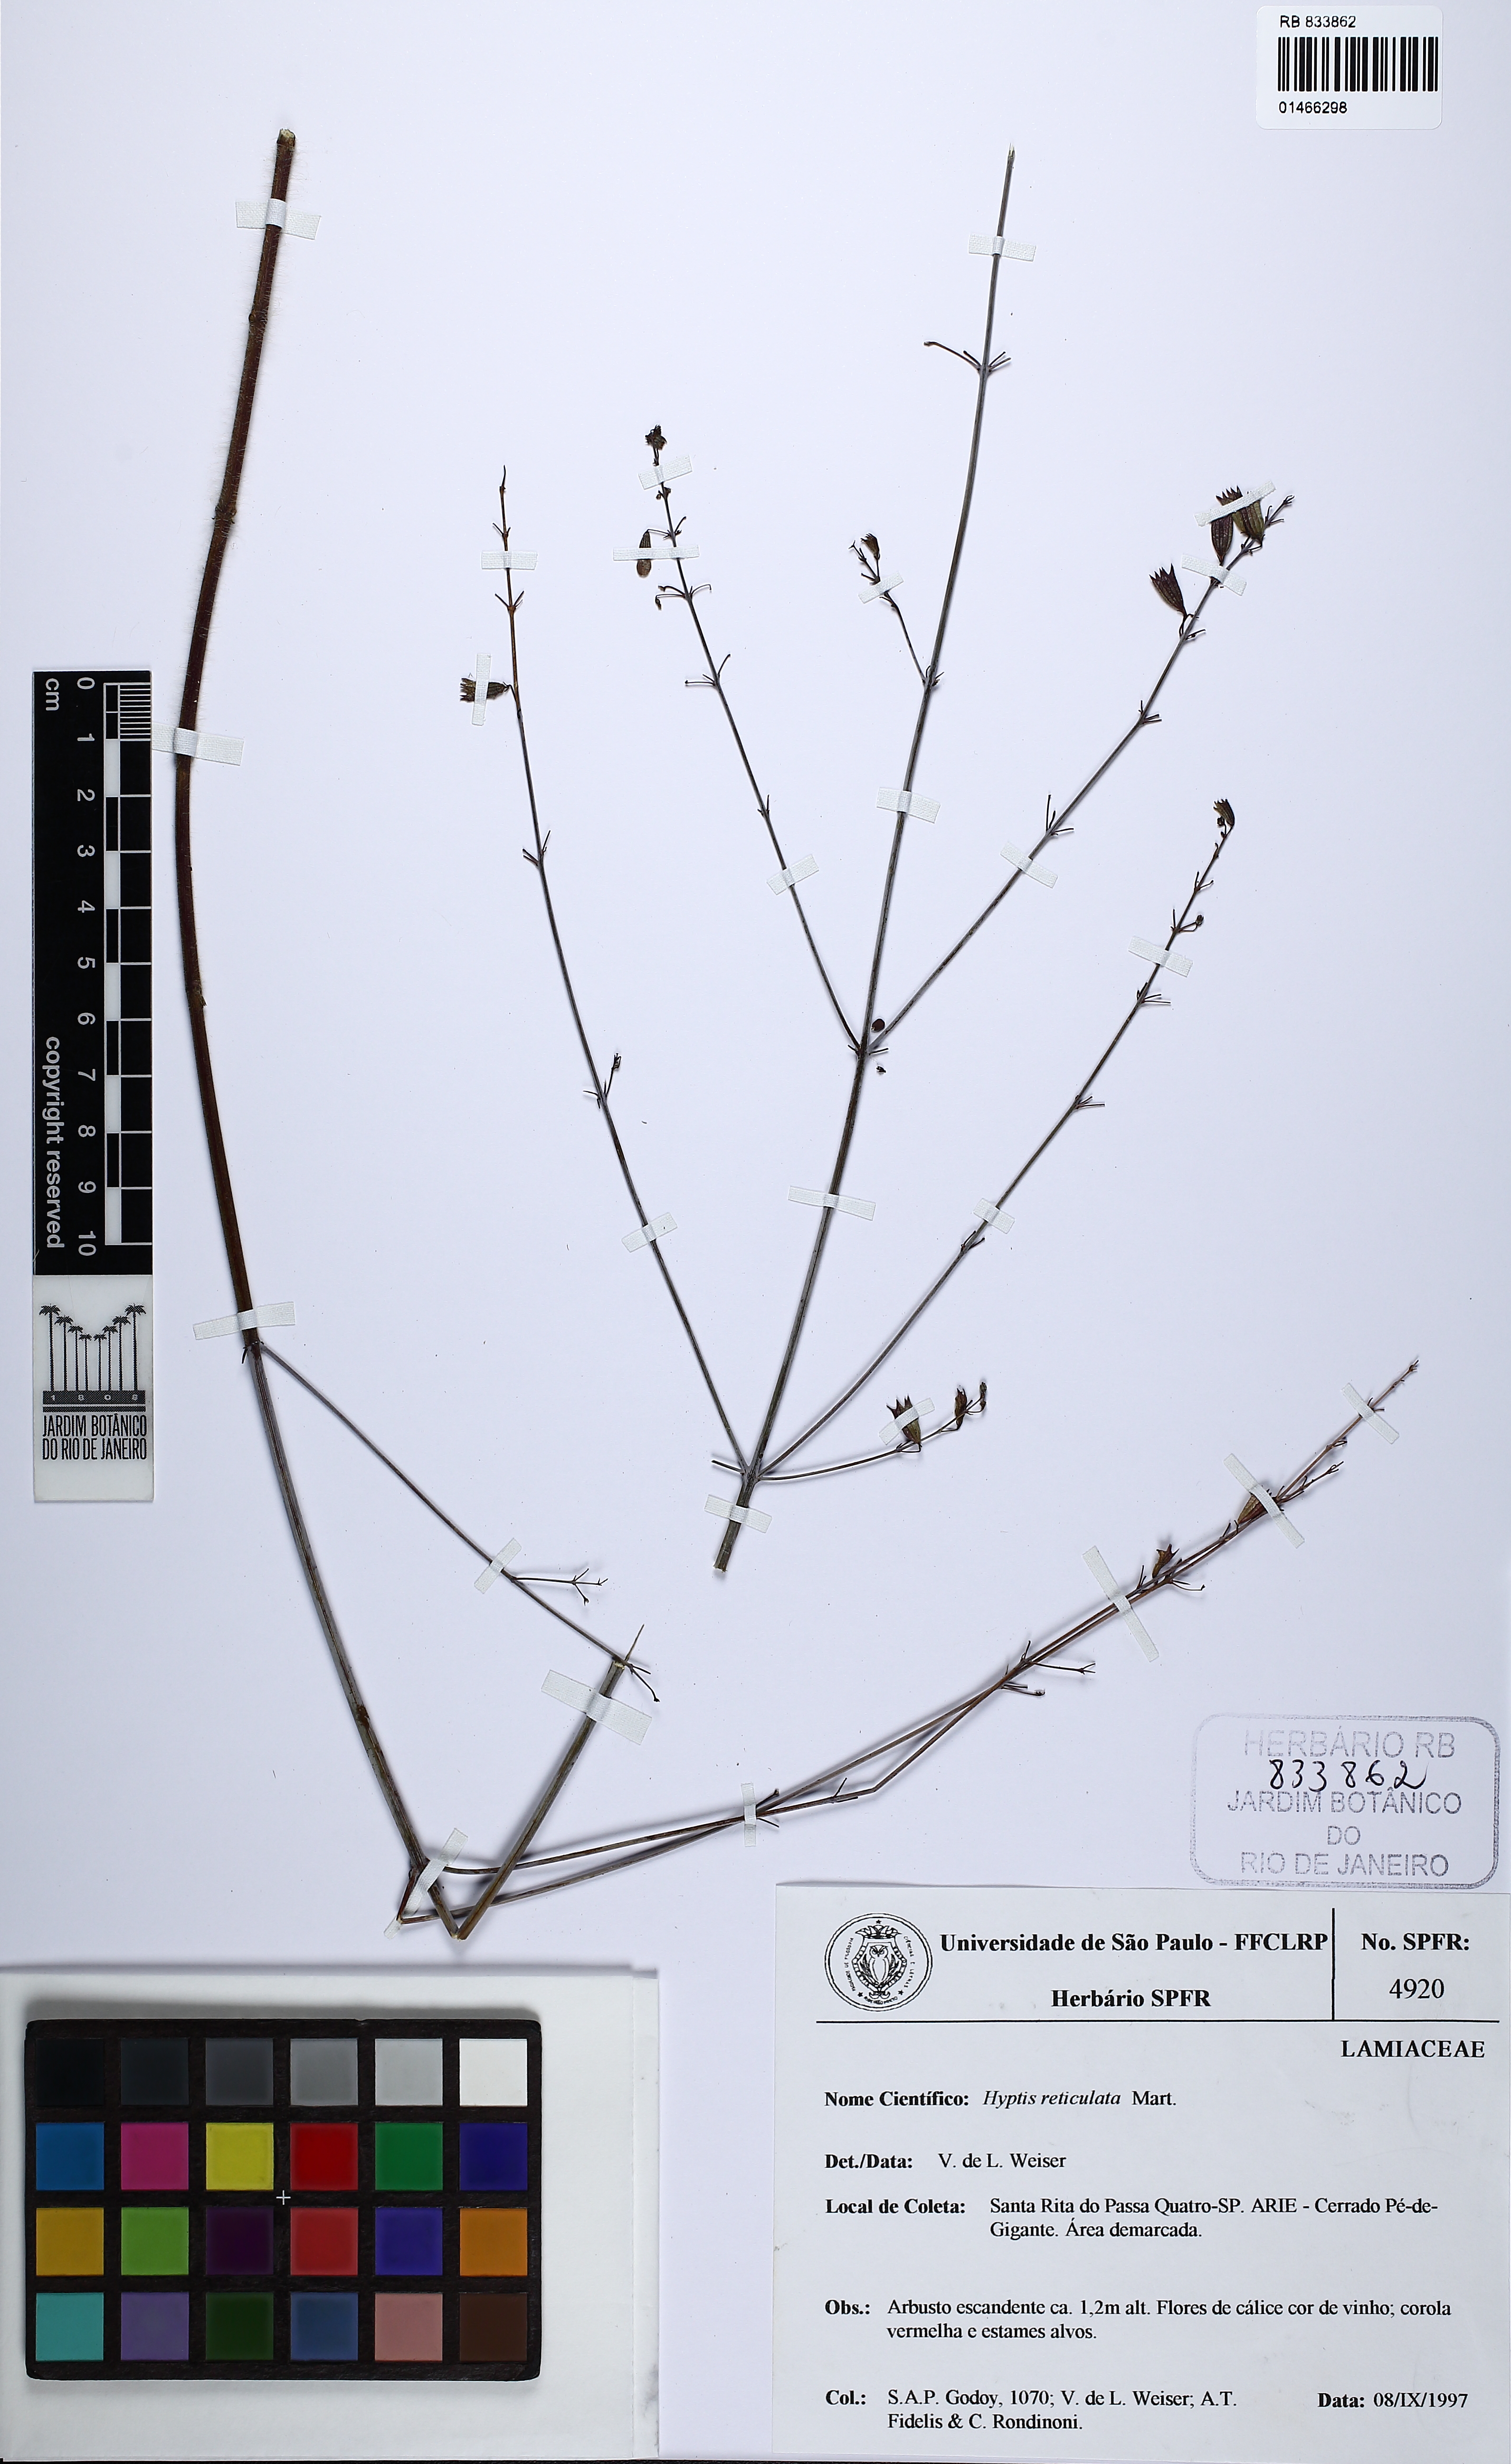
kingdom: Plantae
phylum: Tracheophyta
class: Magnoliopsida
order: Lamiales
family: Lamiaceae
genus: Hypenia
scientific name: Hypenia reticulata
